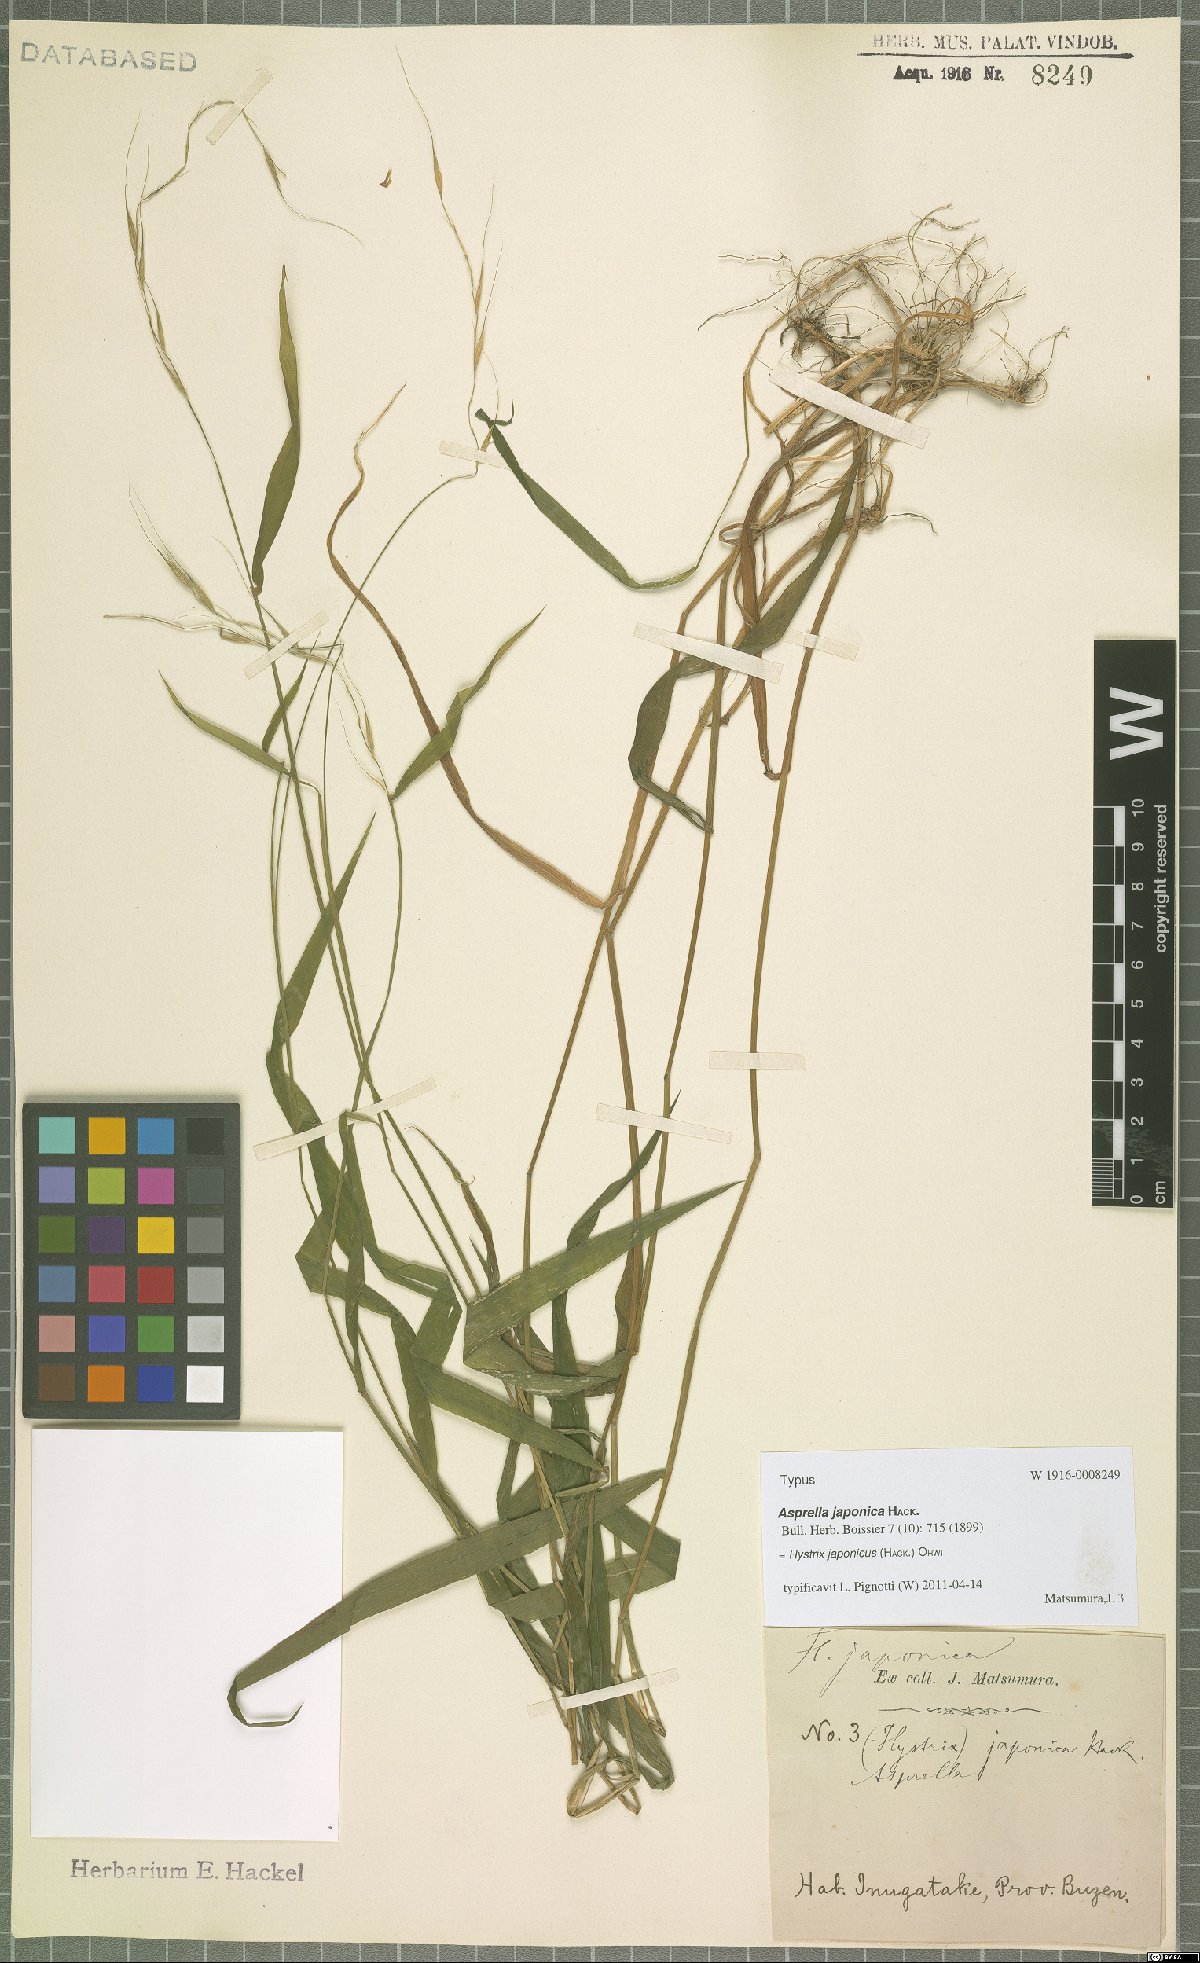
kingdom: Plantae
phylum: Tracheophyta
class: Liliopsida
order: Poales
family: Poaceae
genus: Leymus
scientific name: Leymus duthiei
